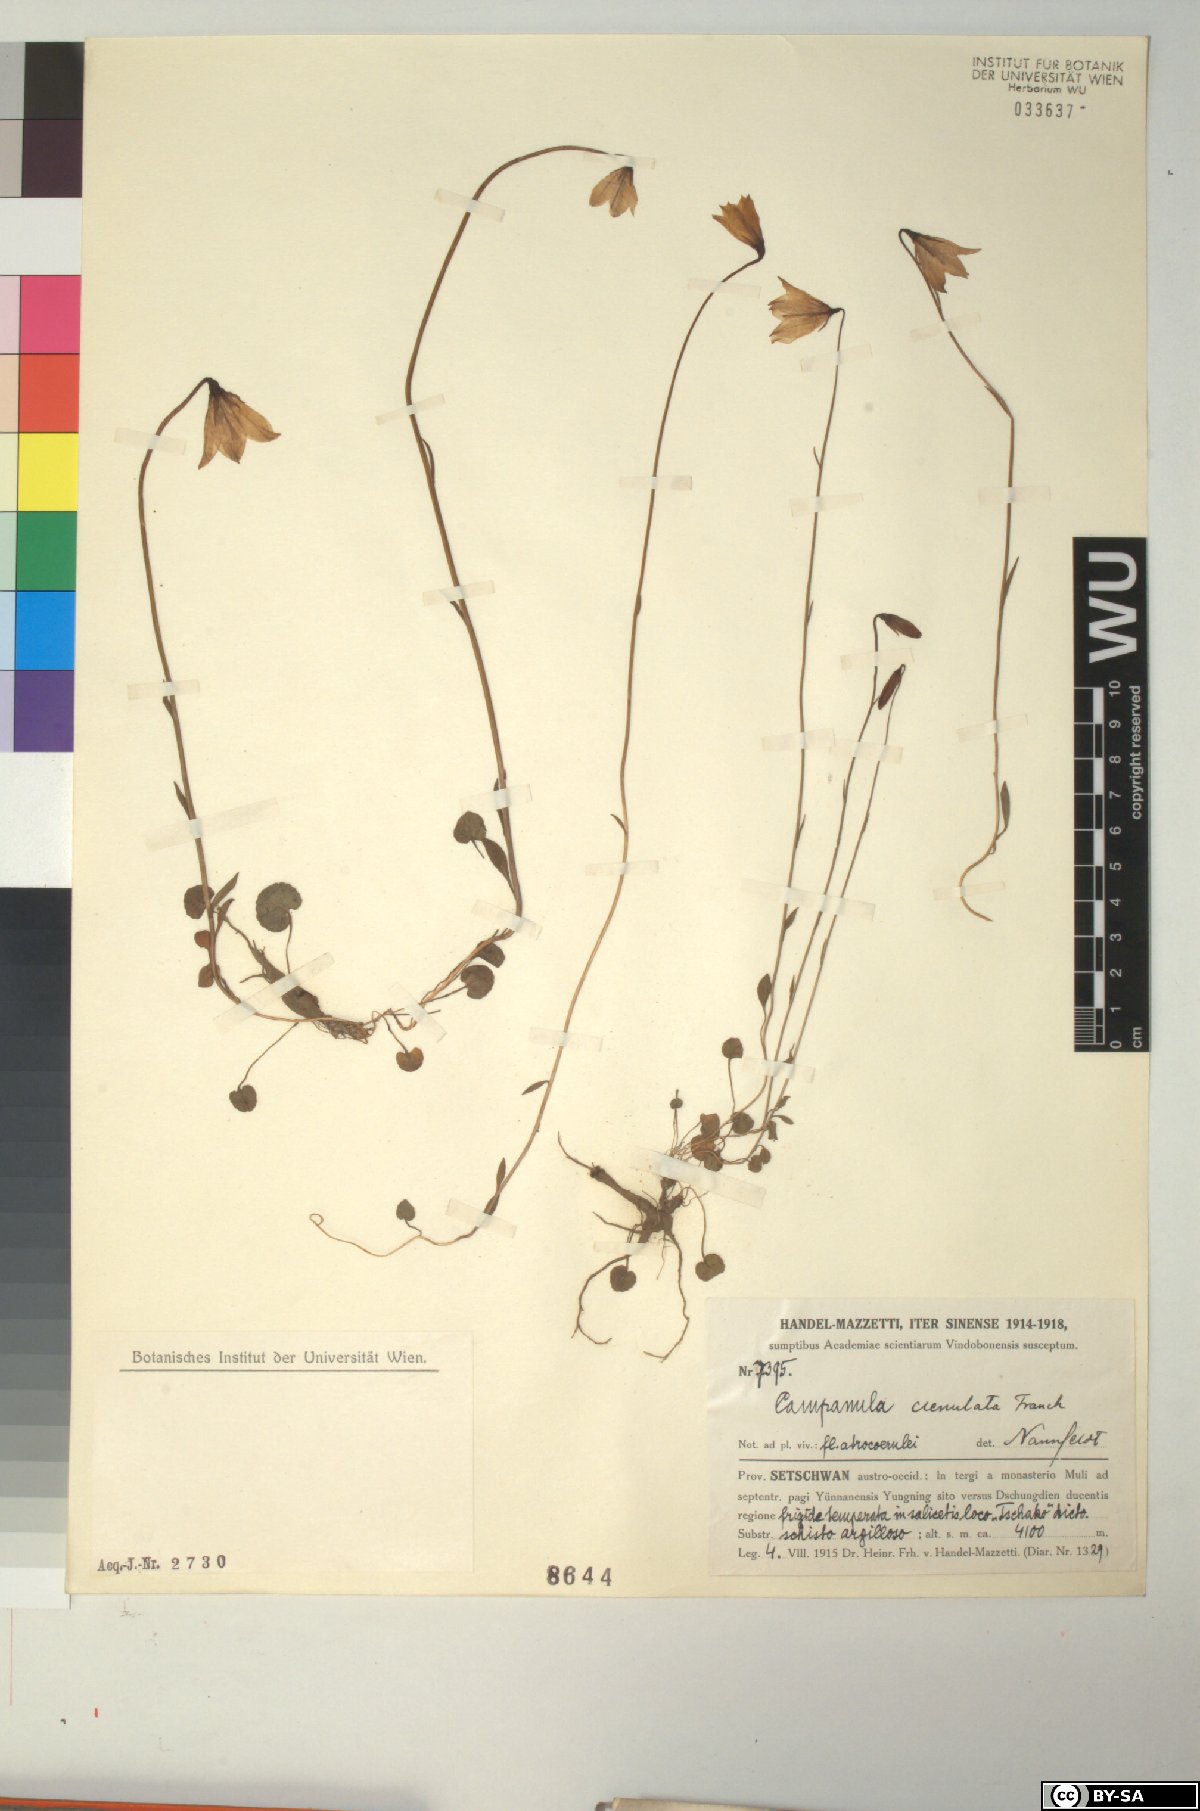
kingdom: Plantae
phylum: Tracheophyta
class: Magnoliopsida
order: Asterales
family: Campanulaceae
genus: Campanula
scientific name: Campanula crenulata
